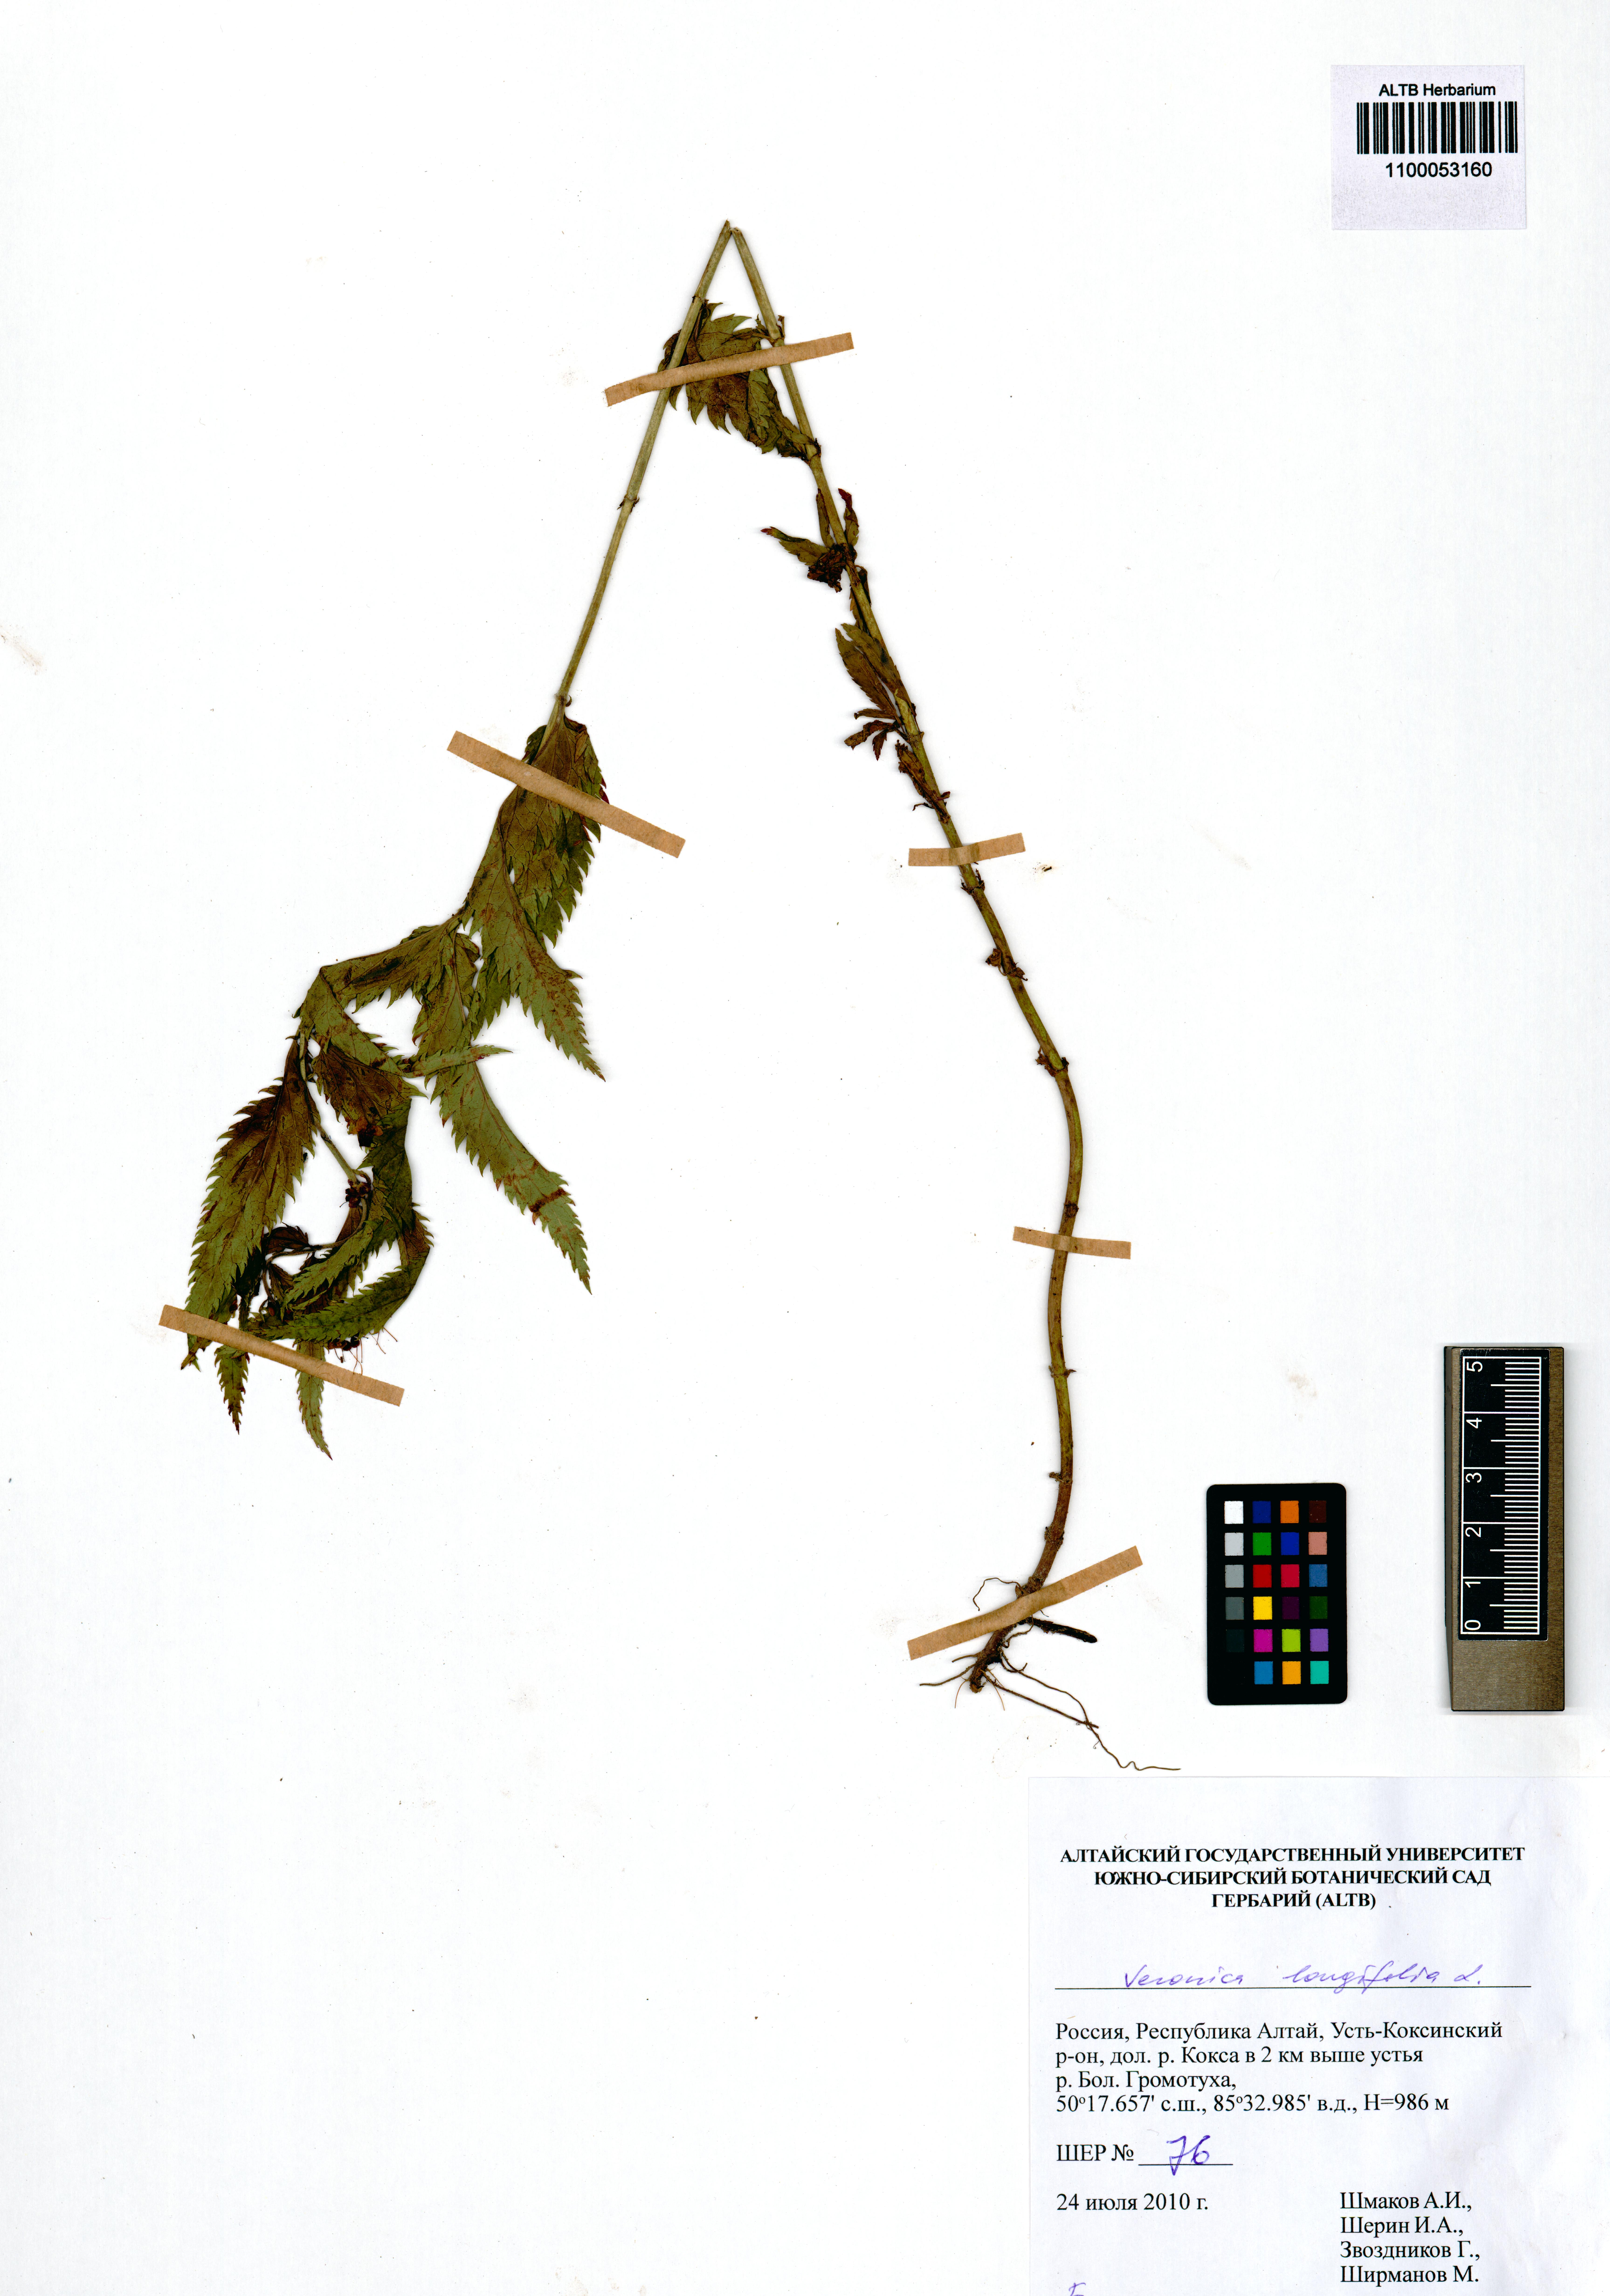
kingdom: Plantae
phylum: Tracheophyta
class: Magnoliopsida
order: Lamiales
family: Plantaginaceae
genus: Veronica
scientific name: Veronica longifolia
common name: Garden speedwell
